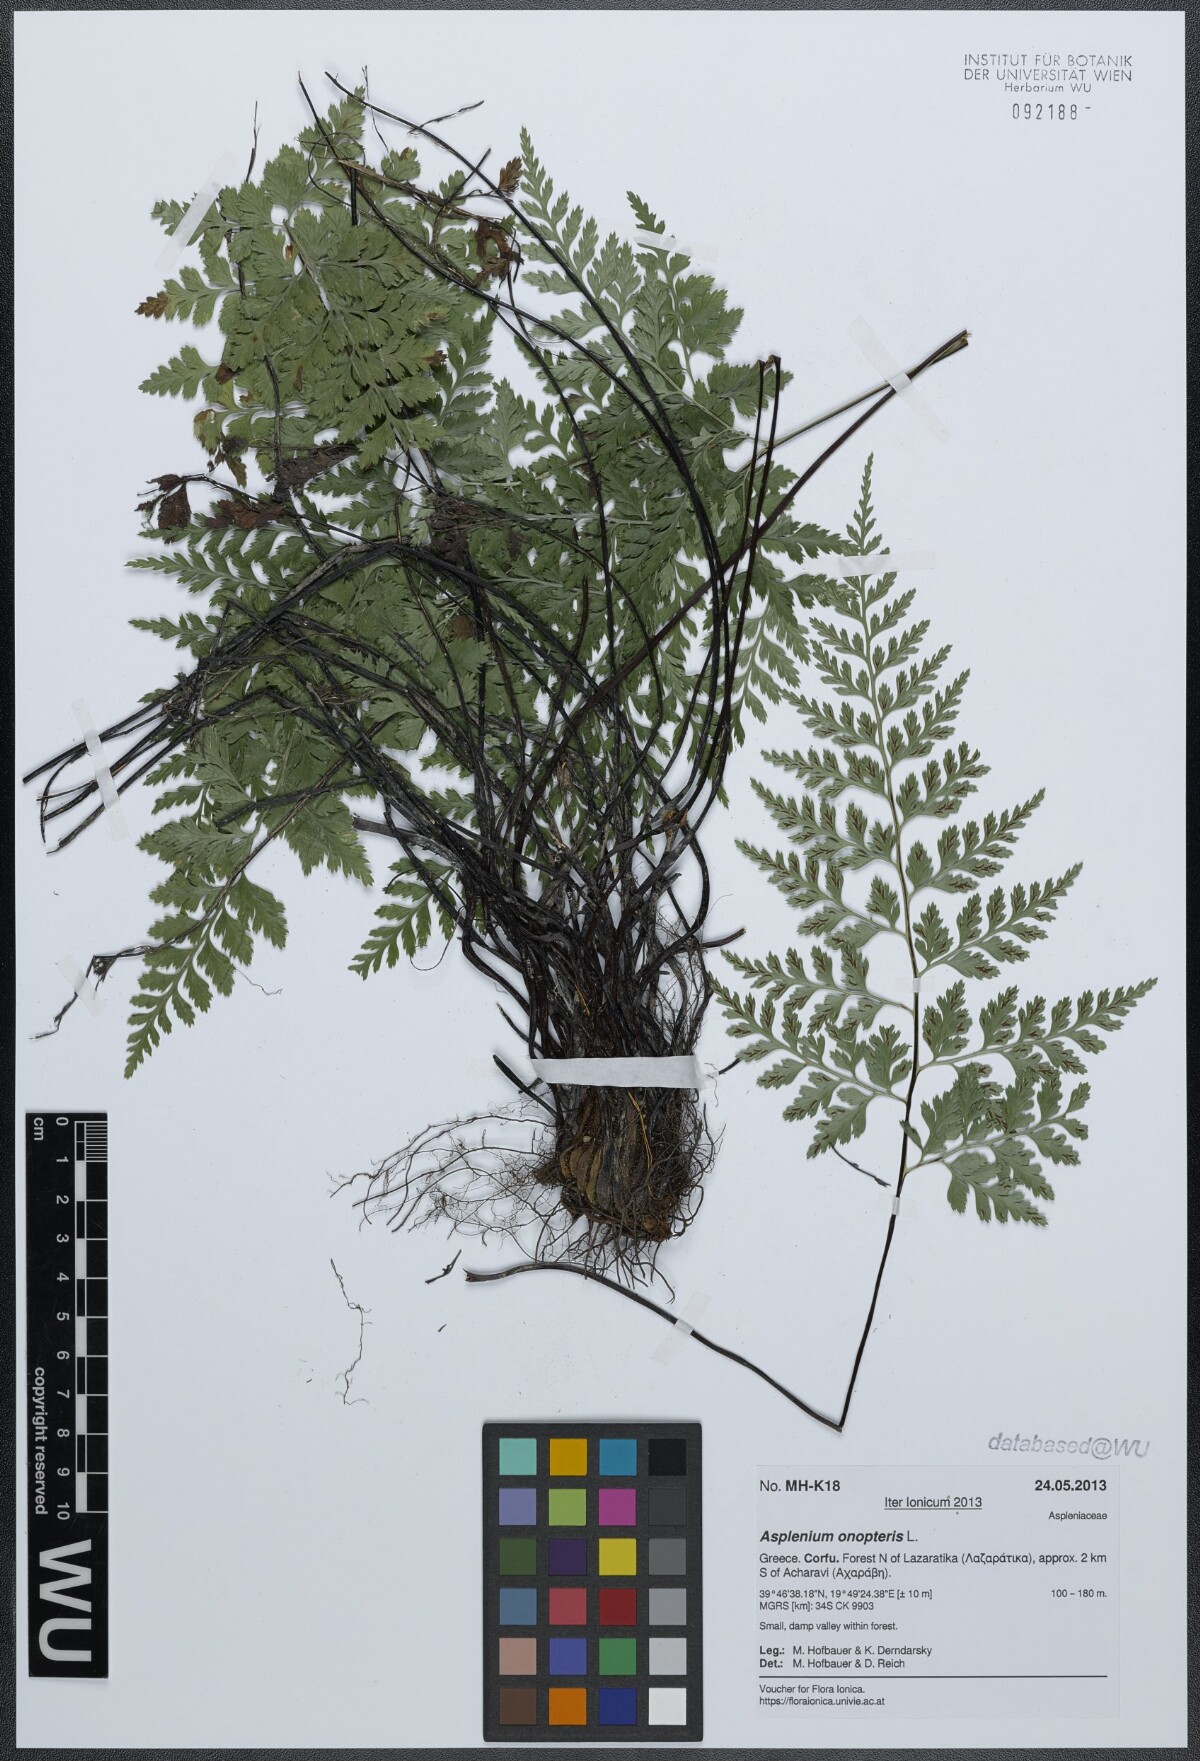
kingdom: Plantae
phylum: Tracheophyta
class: Polypodiopsida
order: Polypodiales
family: Aspleniaceae
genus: Asplenium
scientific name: Asplenium onopteris
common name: Irish spleenwort
